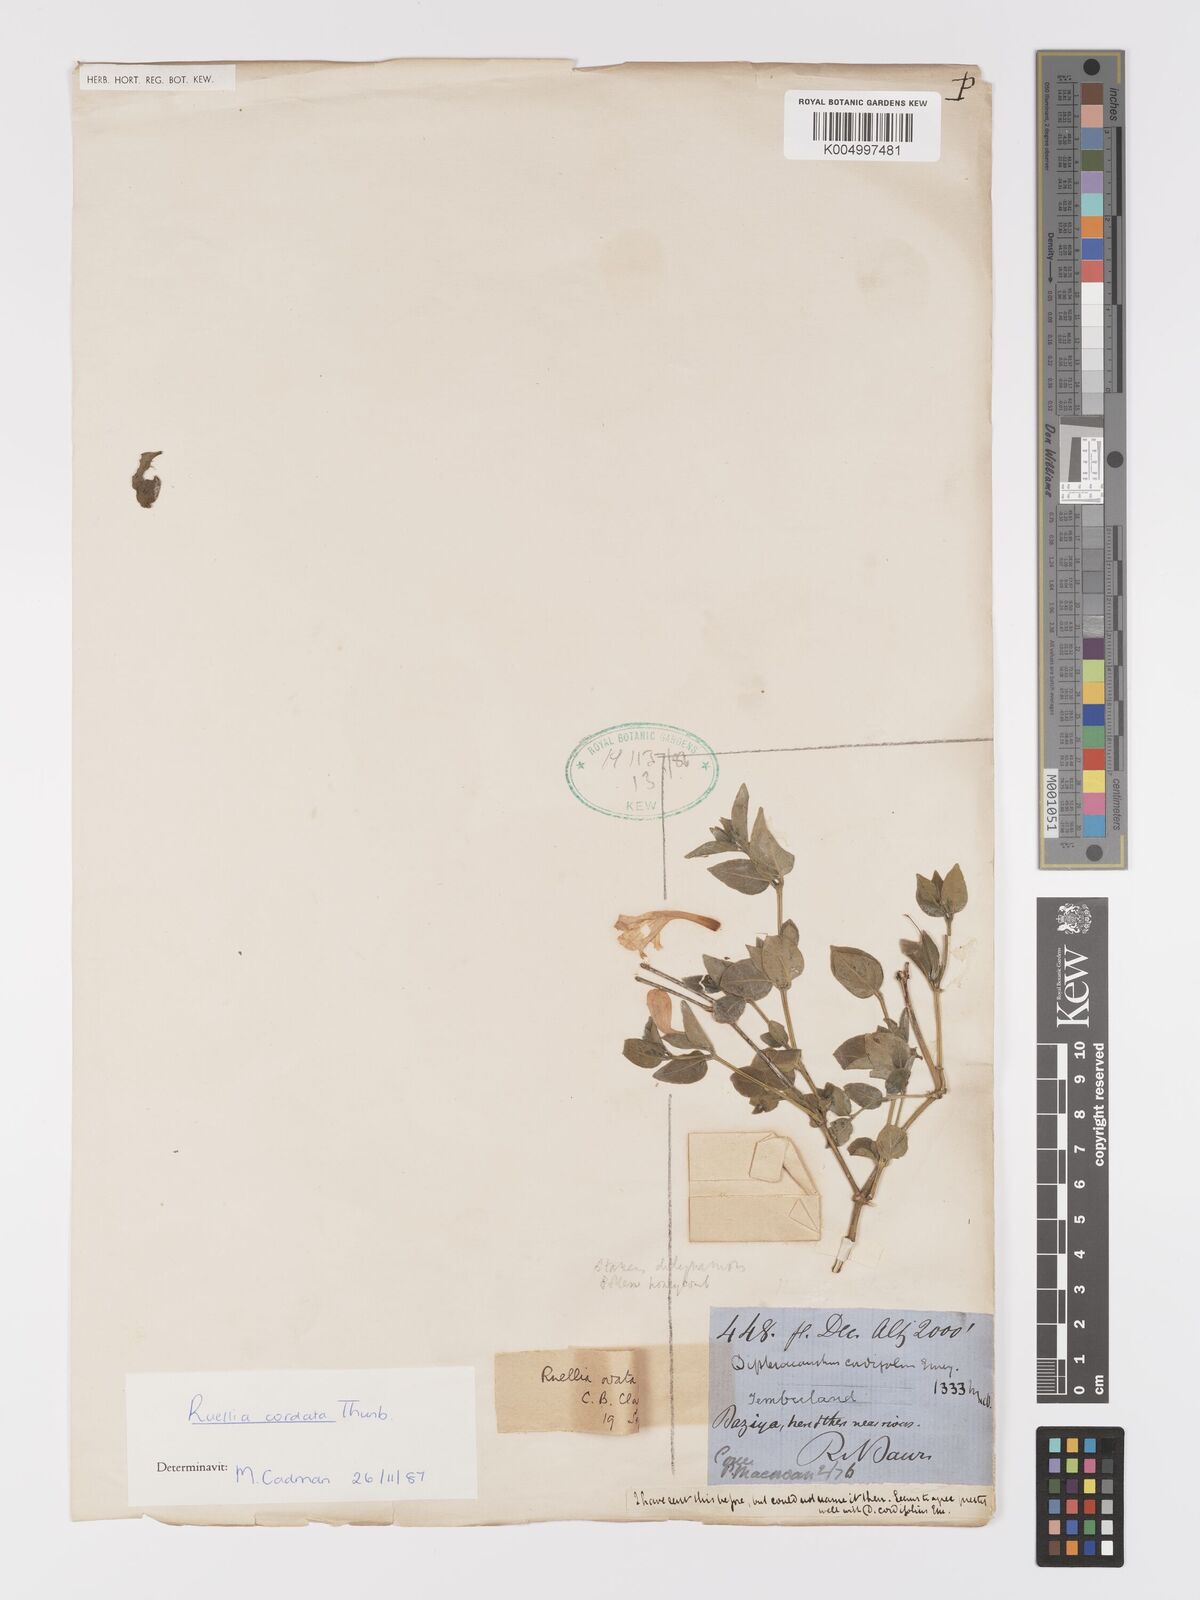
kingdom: Plantae
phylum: Tracheophyta
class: Magnoliopsida
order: Lamiales
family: Acanthaceae
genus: Ruellia
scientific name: Ruellia cordata
